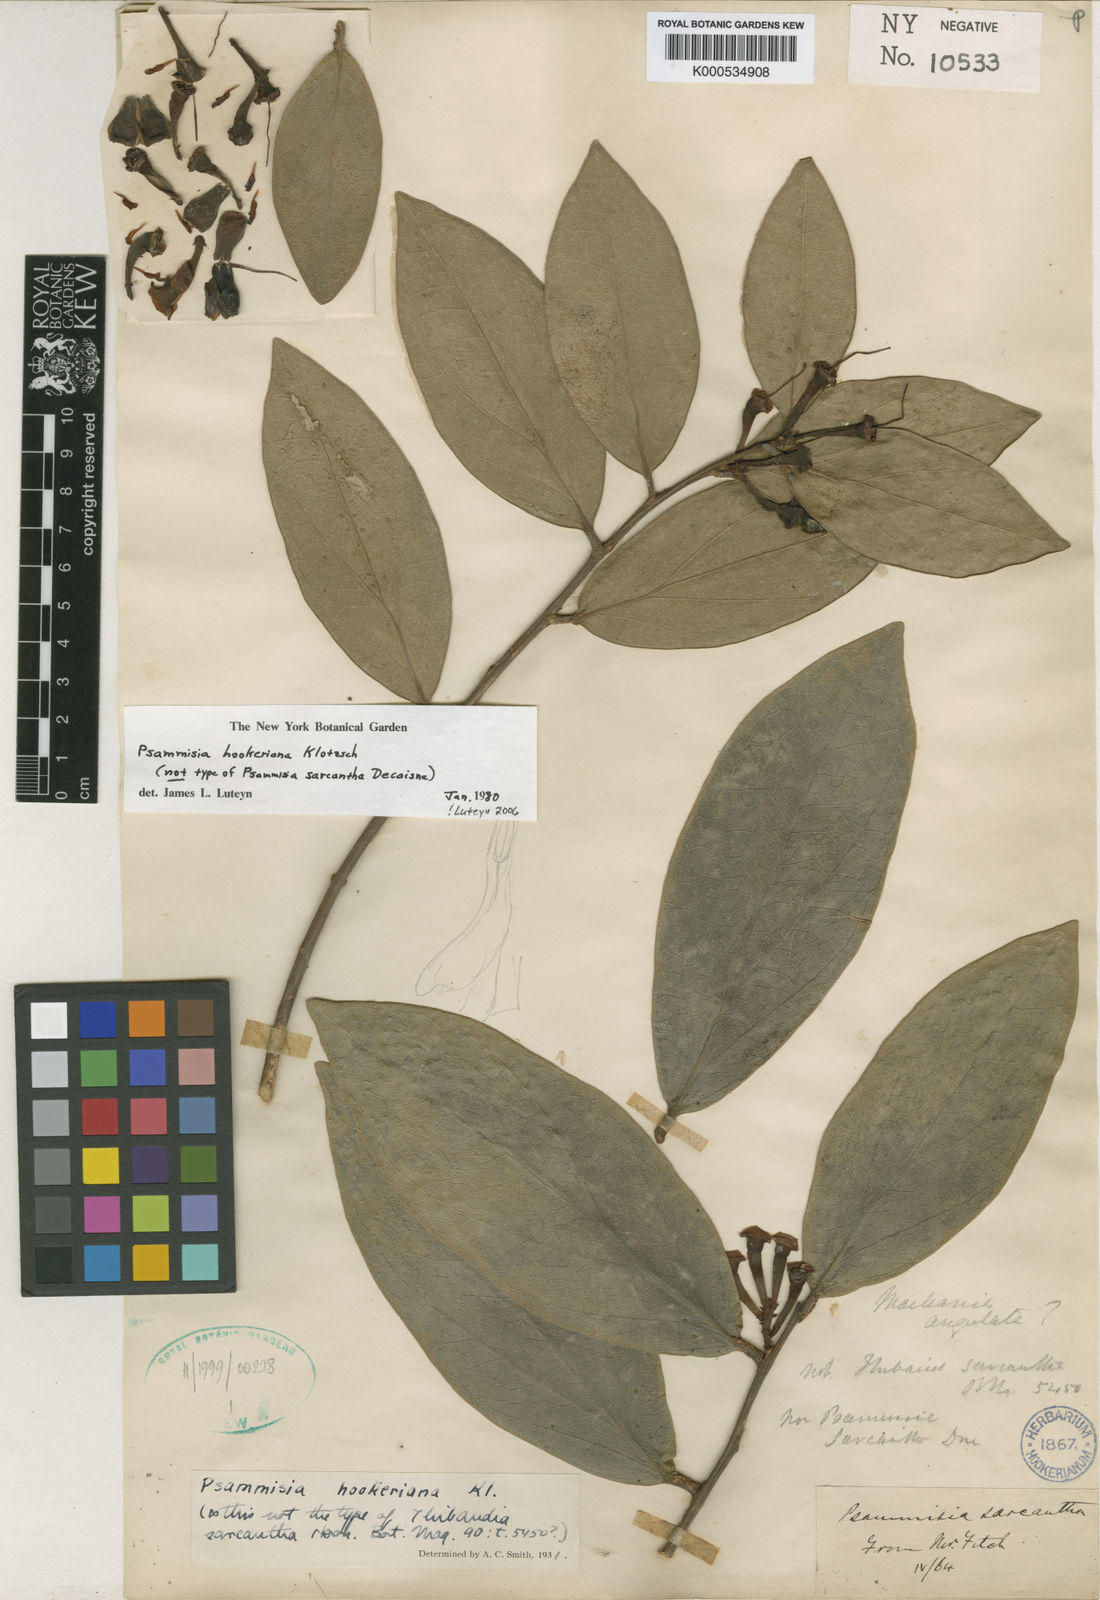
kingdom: Plantae
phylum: Tracheophyta
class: Magnoliopsida
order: Ericales
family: Ericaceae
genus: Psammisia
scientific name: Psammisia hookeriana
